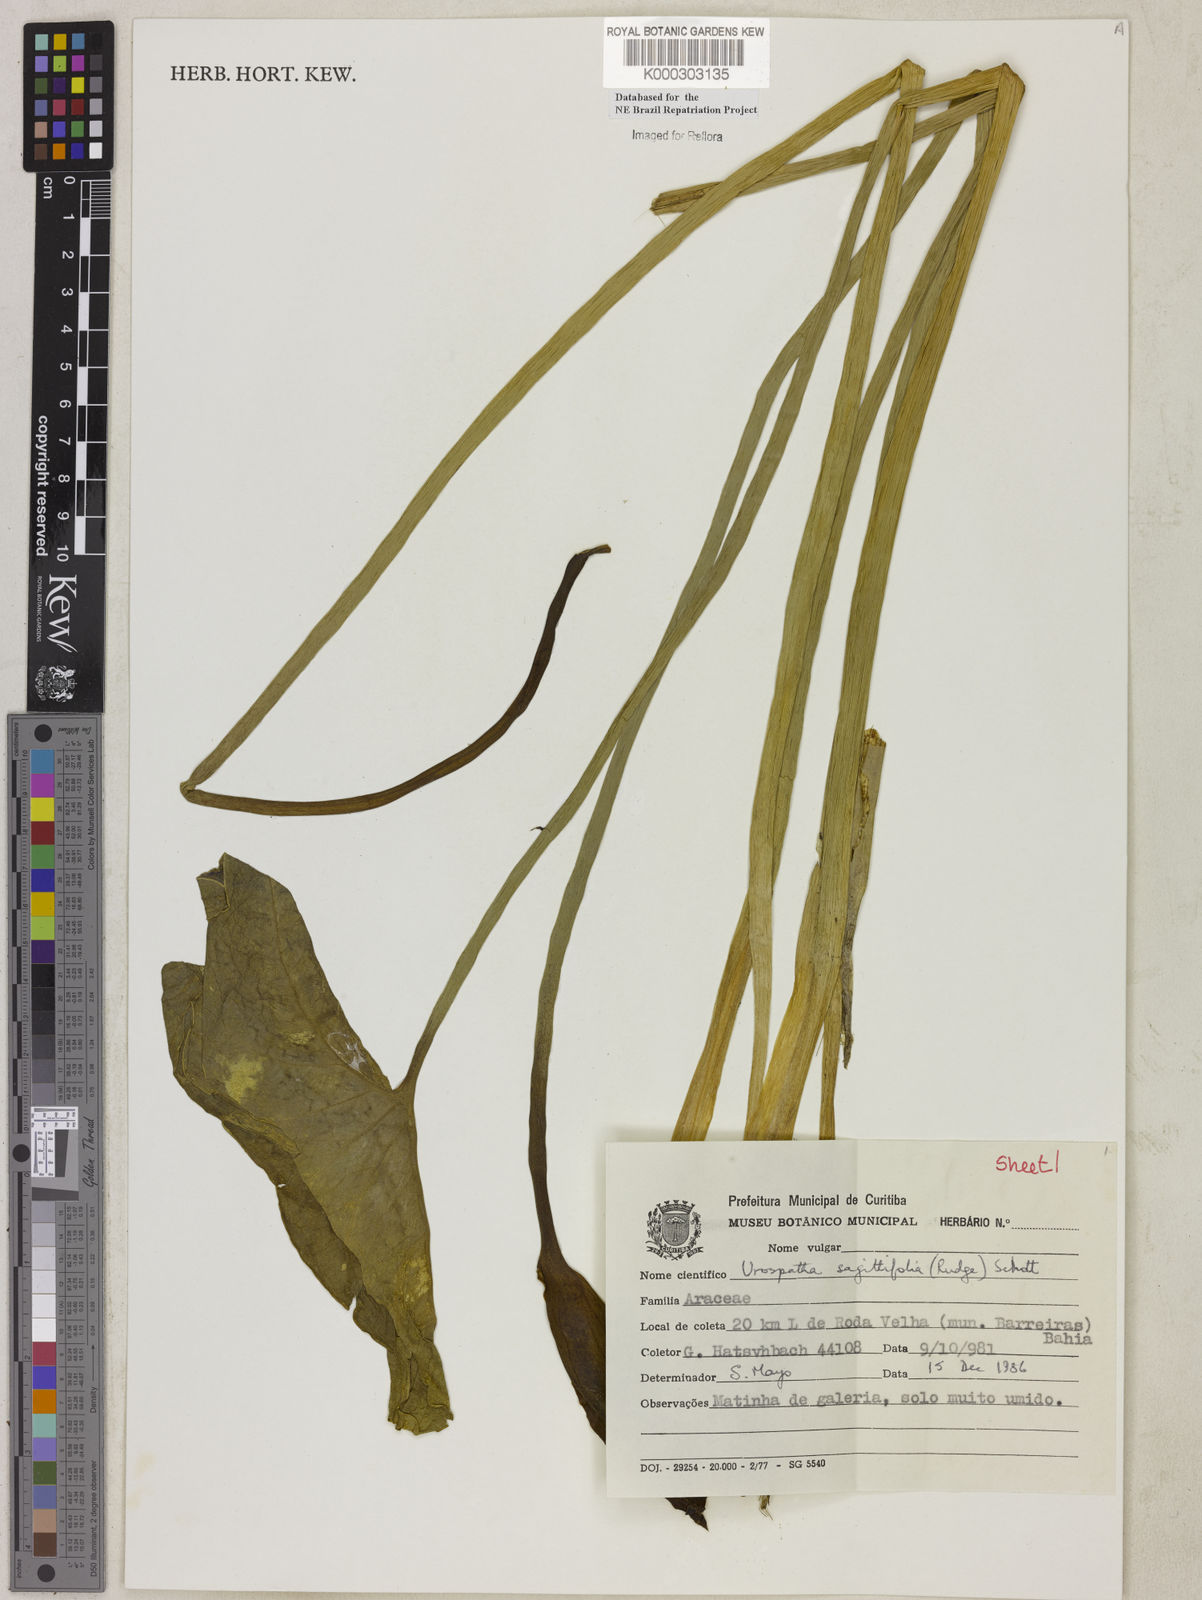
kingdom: Plantae
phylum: Tracheophyta
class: Liliopsida
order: Alismatales
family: Araceae
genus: Urospatha
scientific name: Urospatha sagittifolia
